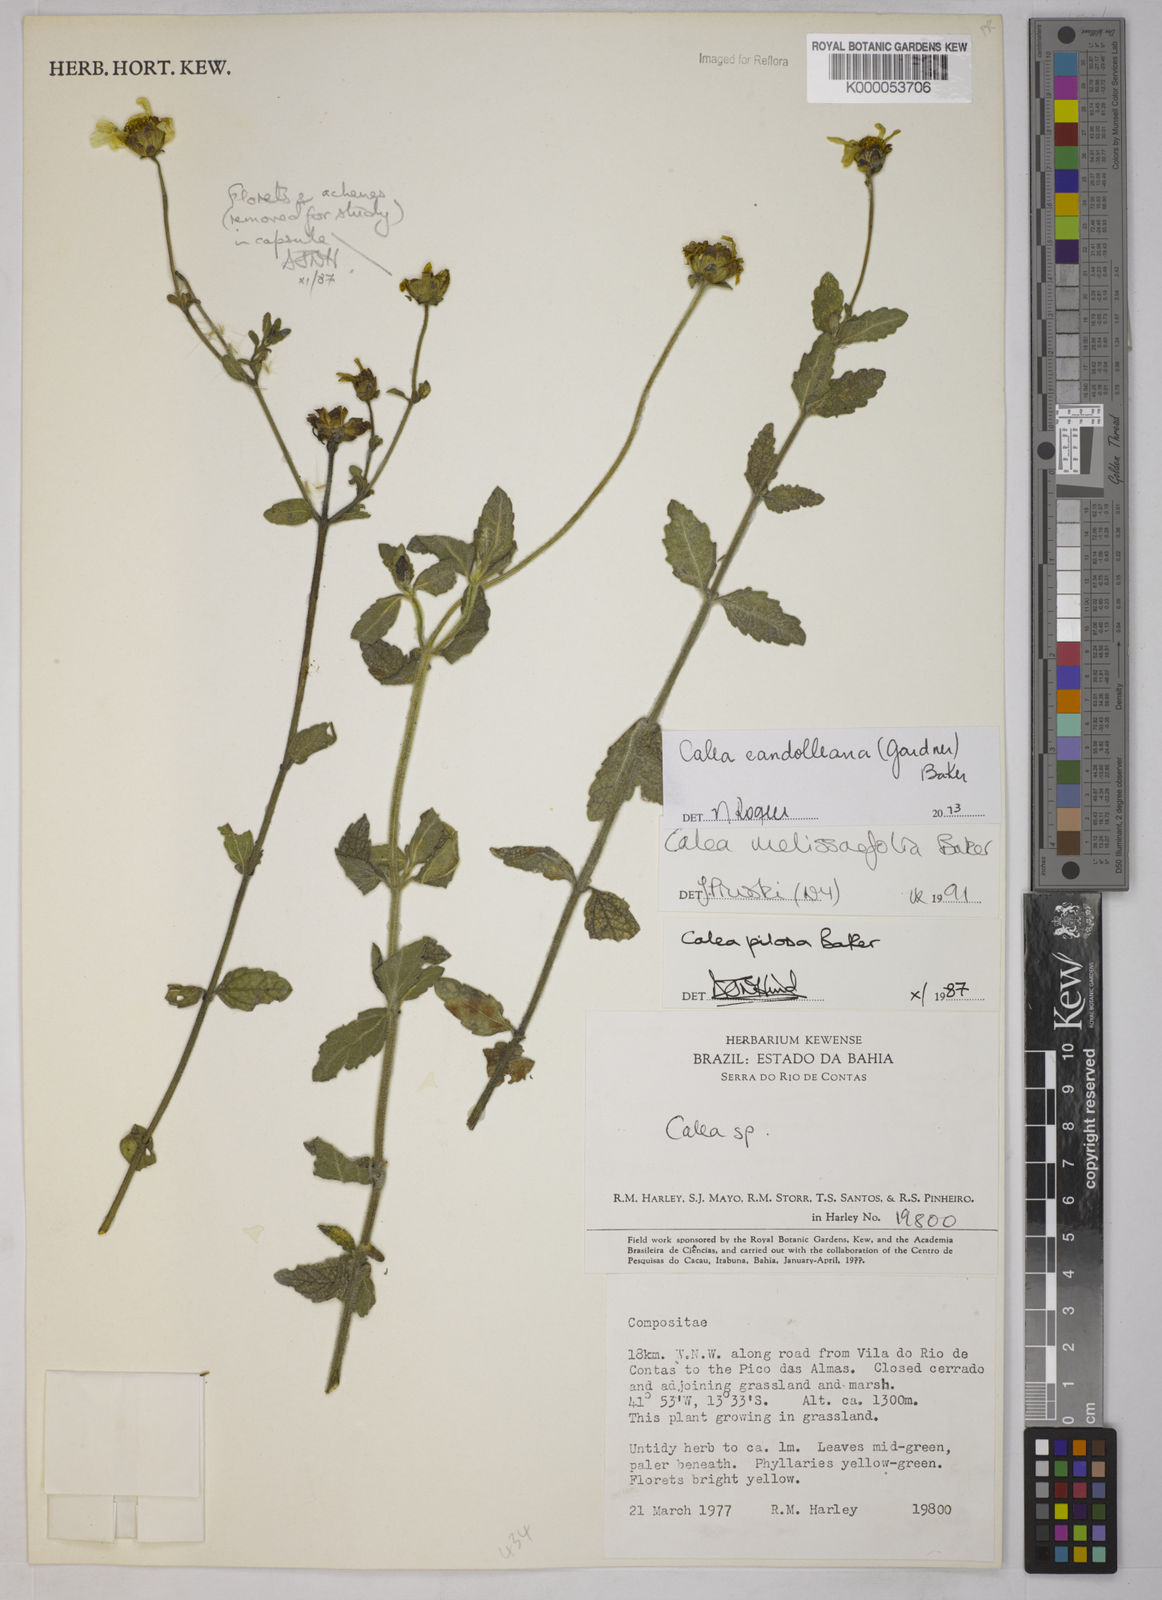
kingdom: Plantae
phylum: Tracheophyta
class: Magnoliopsida
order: Asterales
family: Asteraceae
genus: Calea
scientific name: Calea pilosa
